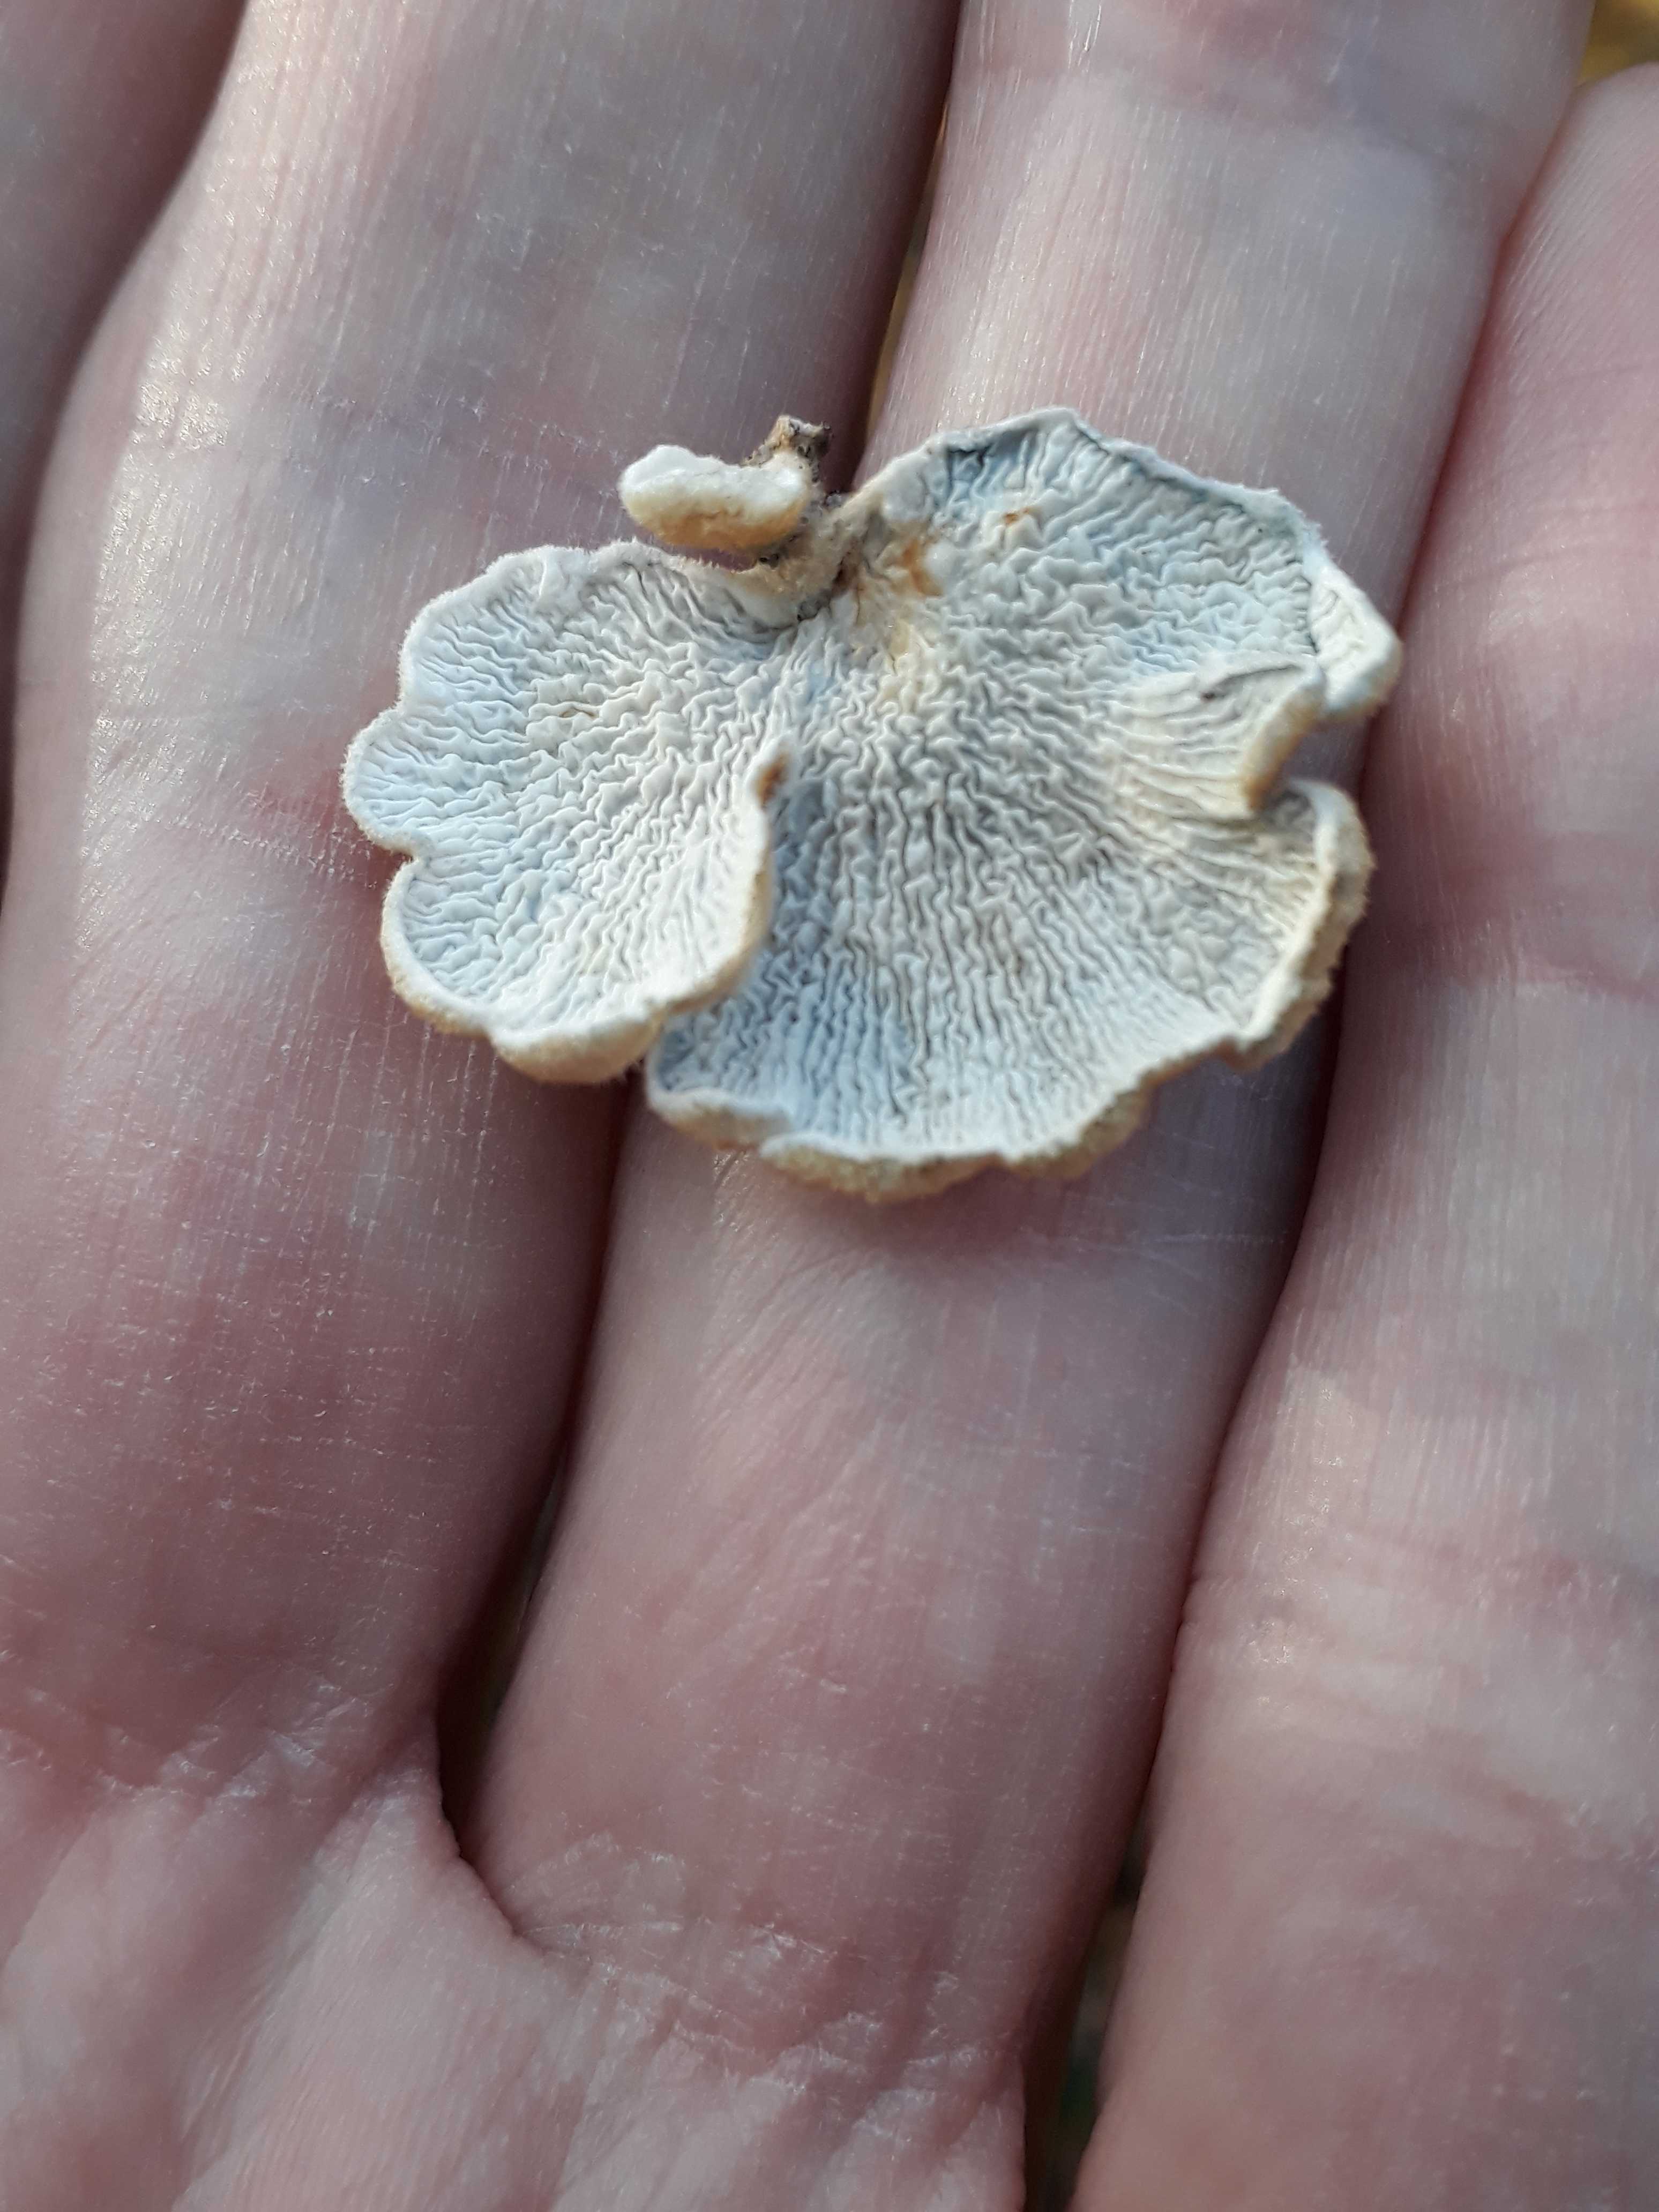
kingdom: Fungi
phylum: Basidiomycota
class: Agaricomycetes
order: Amylocorticiales
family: Amylocorticiaceae
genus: Plicaturopsis
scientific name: Plicaturopsis crispa
